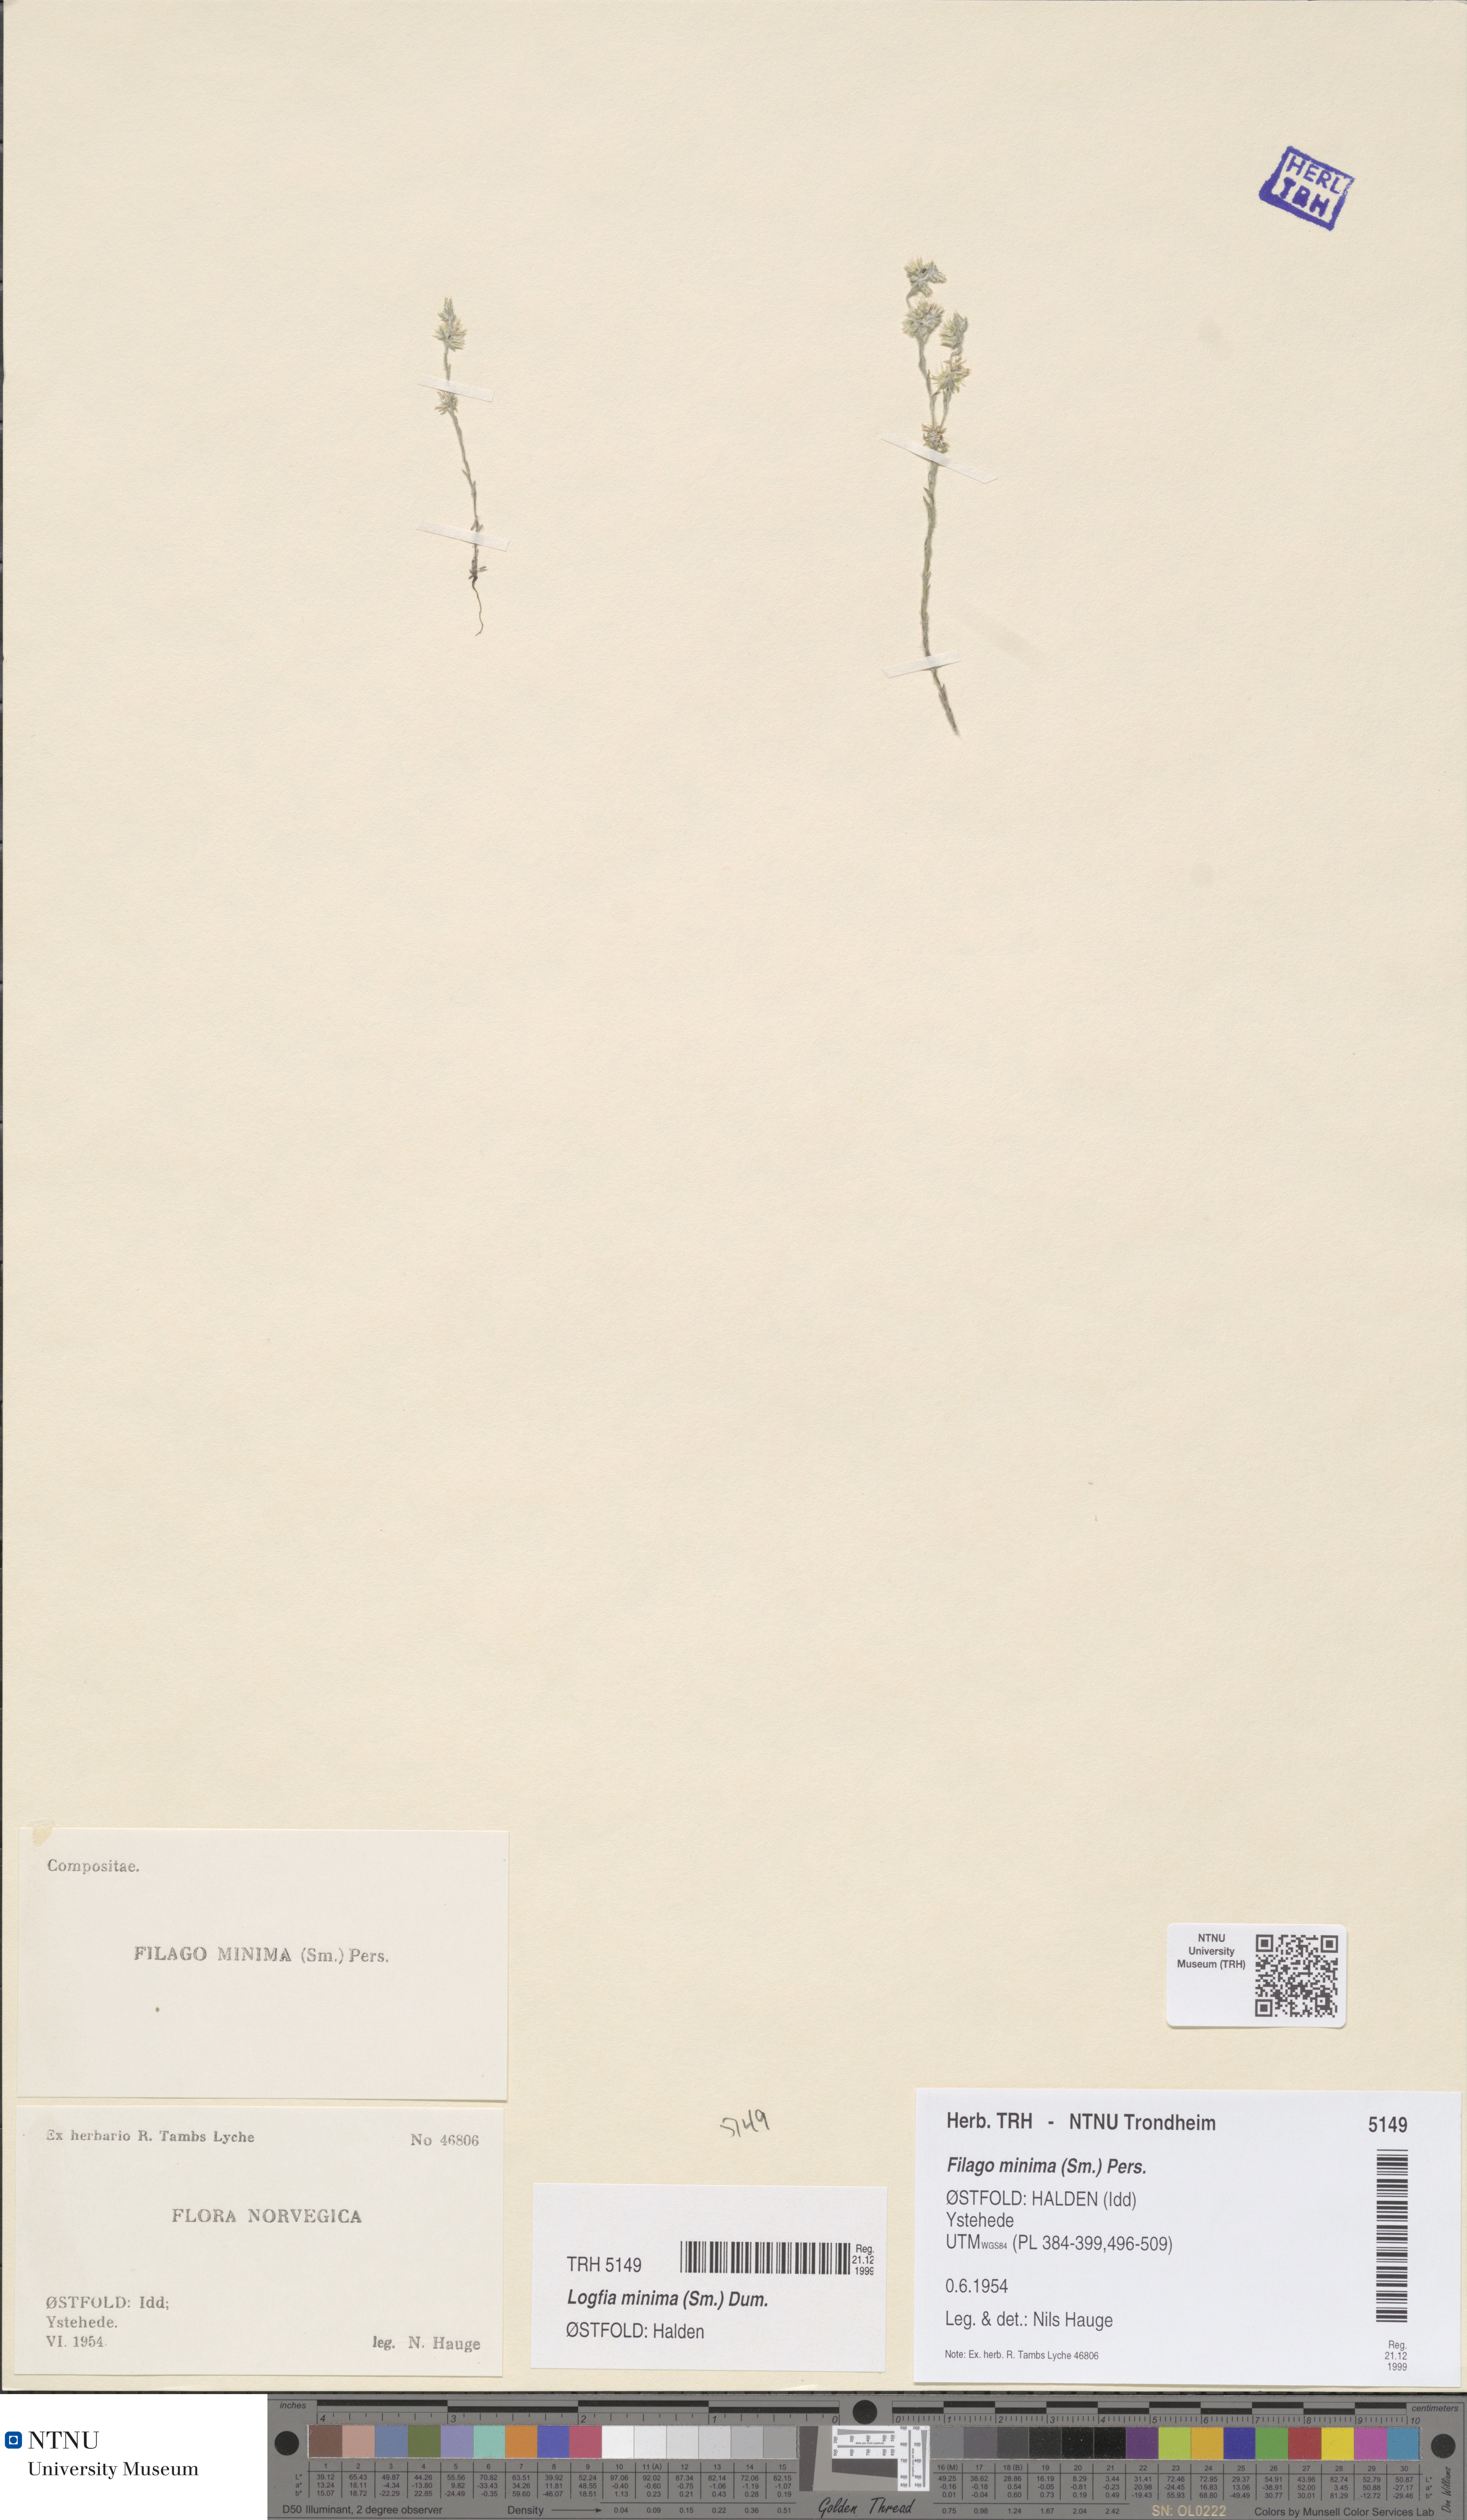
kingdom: Plantae
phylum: Tracheophyta
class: Magnoliopsida
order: Asterales
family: Asteraceae
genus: Logfia
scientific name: Logfia minima
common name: Little cottonrose
